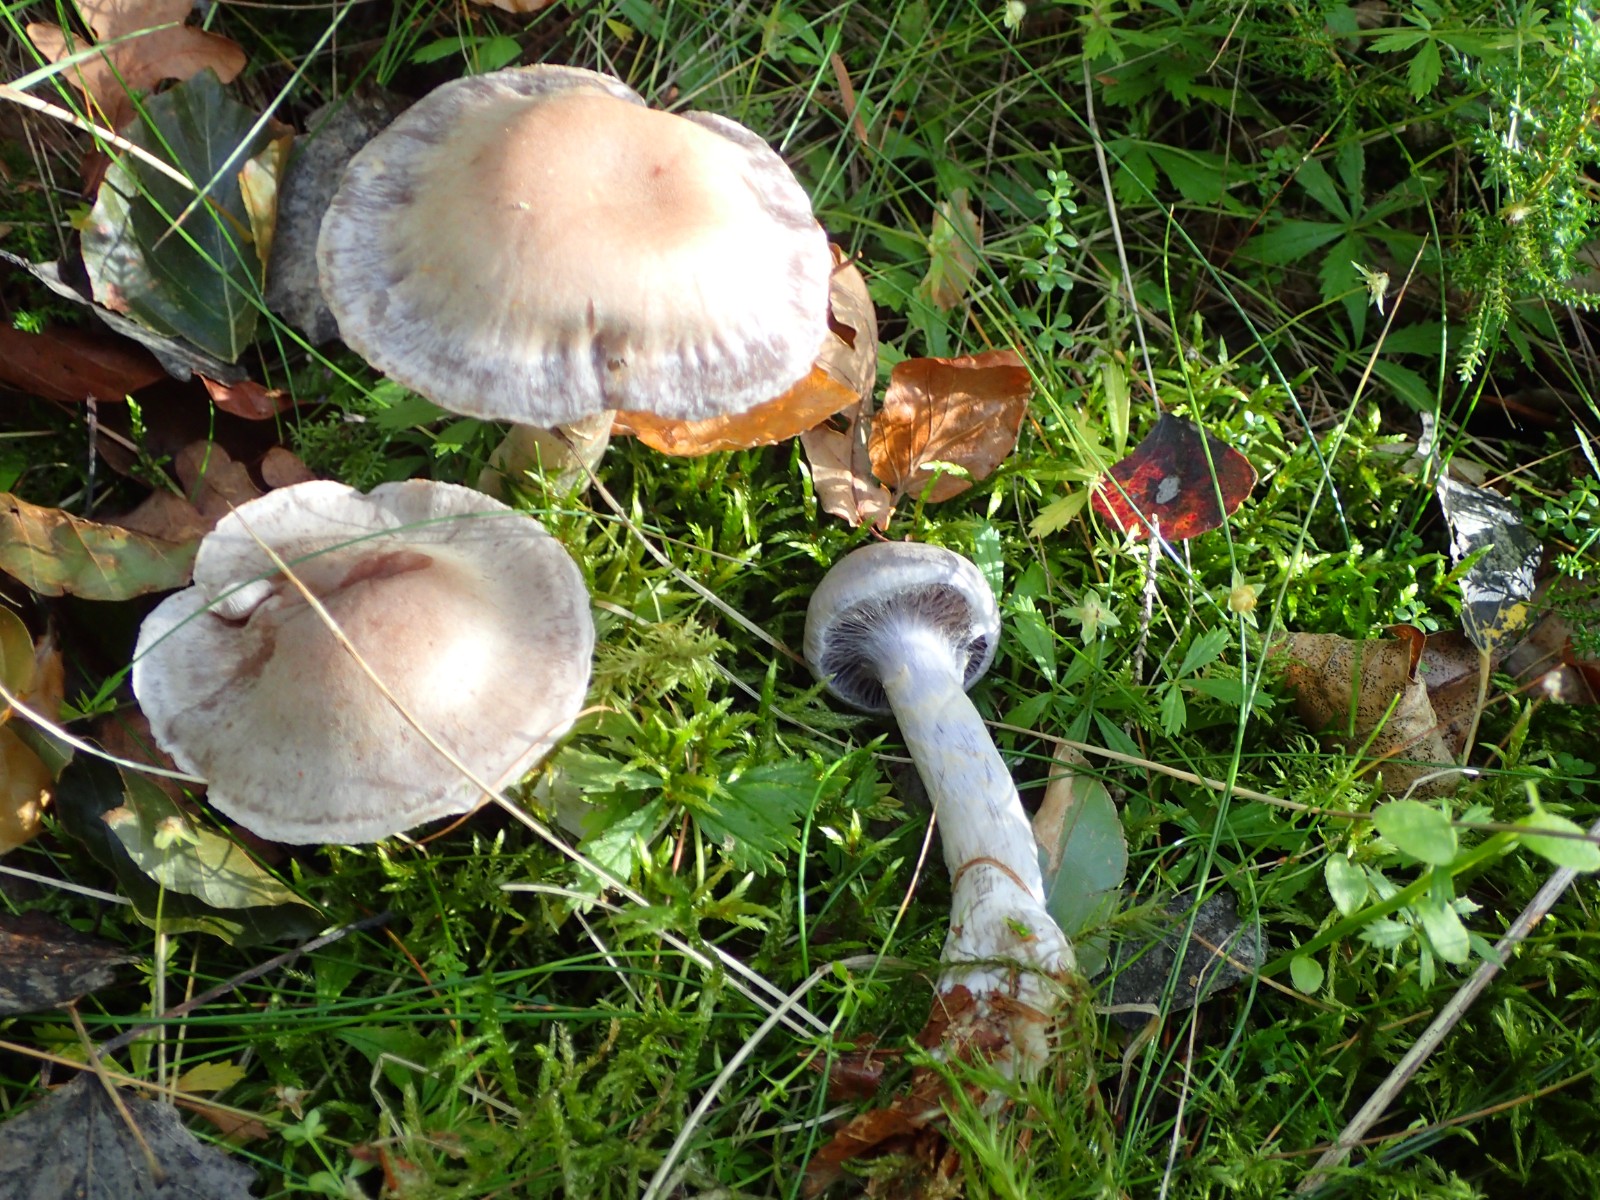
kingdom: Fungi
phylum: Basidiomycota
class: Agaricomycetes
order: Agaricales
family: Cortinariaceae
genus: Cortinarius
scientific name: Cortinarius
